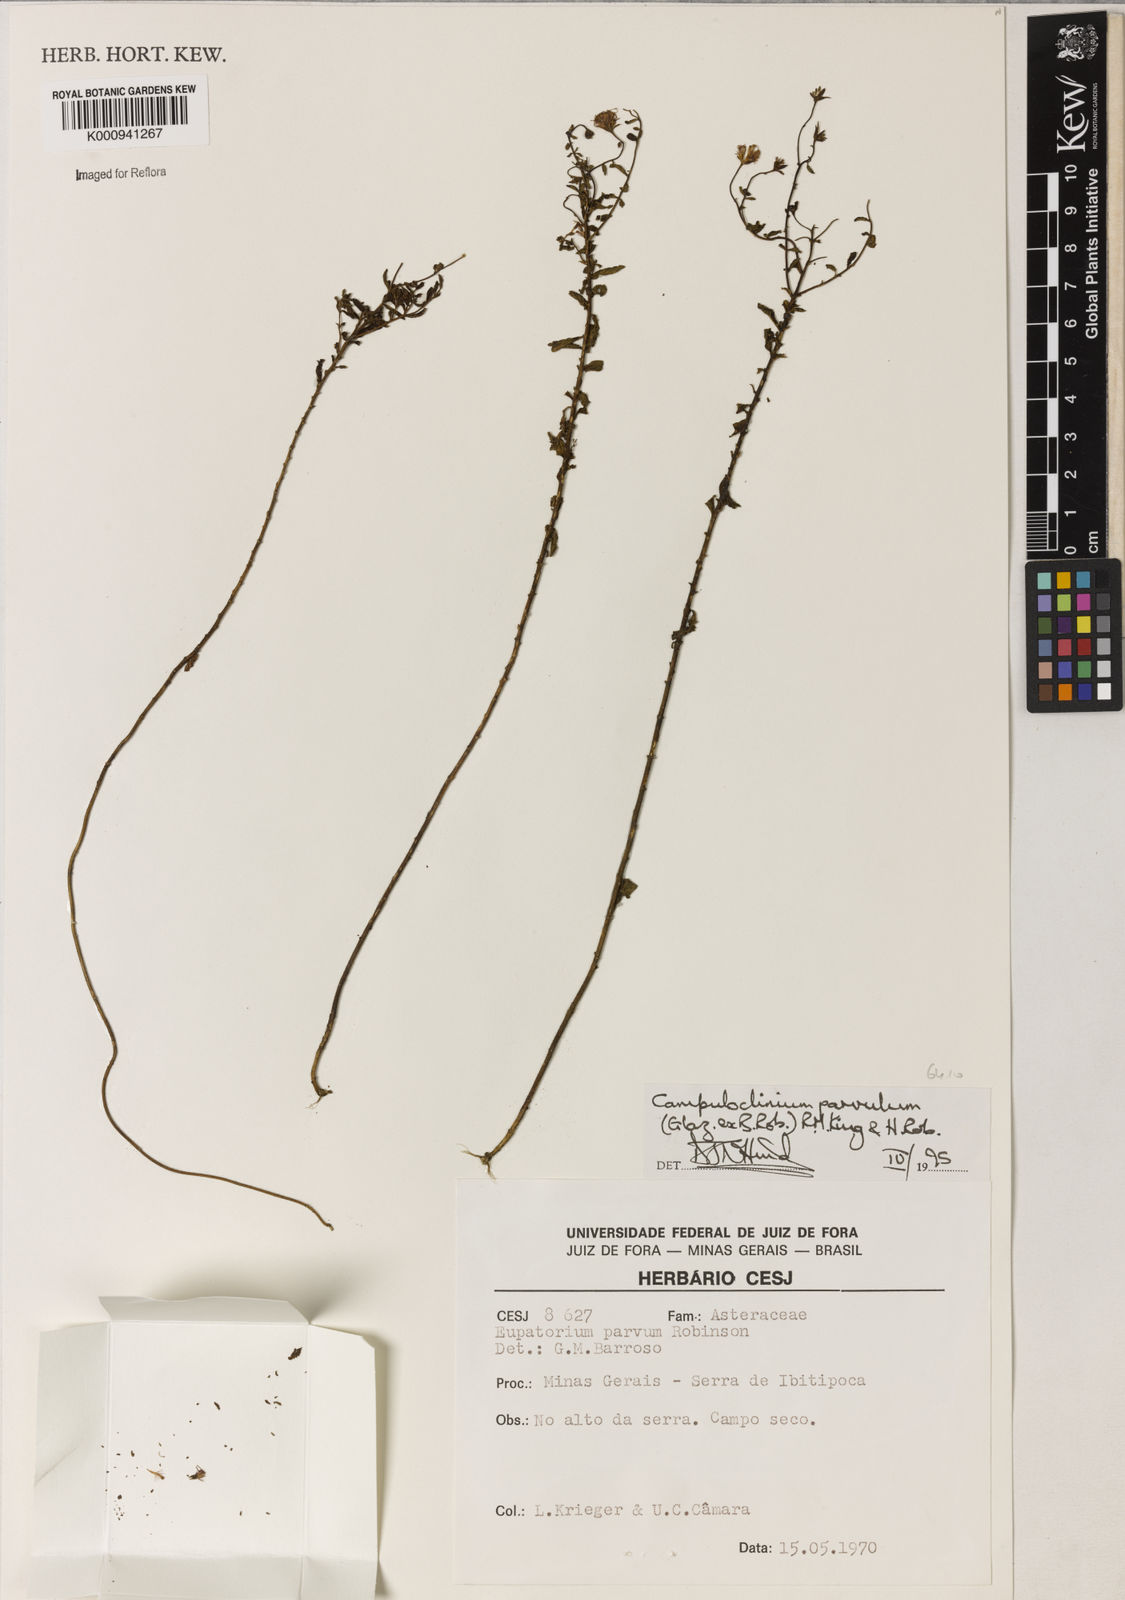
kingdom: Plantae
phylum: Tracheophyta
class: Magnoliopsida
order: Asterales
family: Asteraceae
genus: Campuloclinium
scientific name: Campuloclinium parvulum
